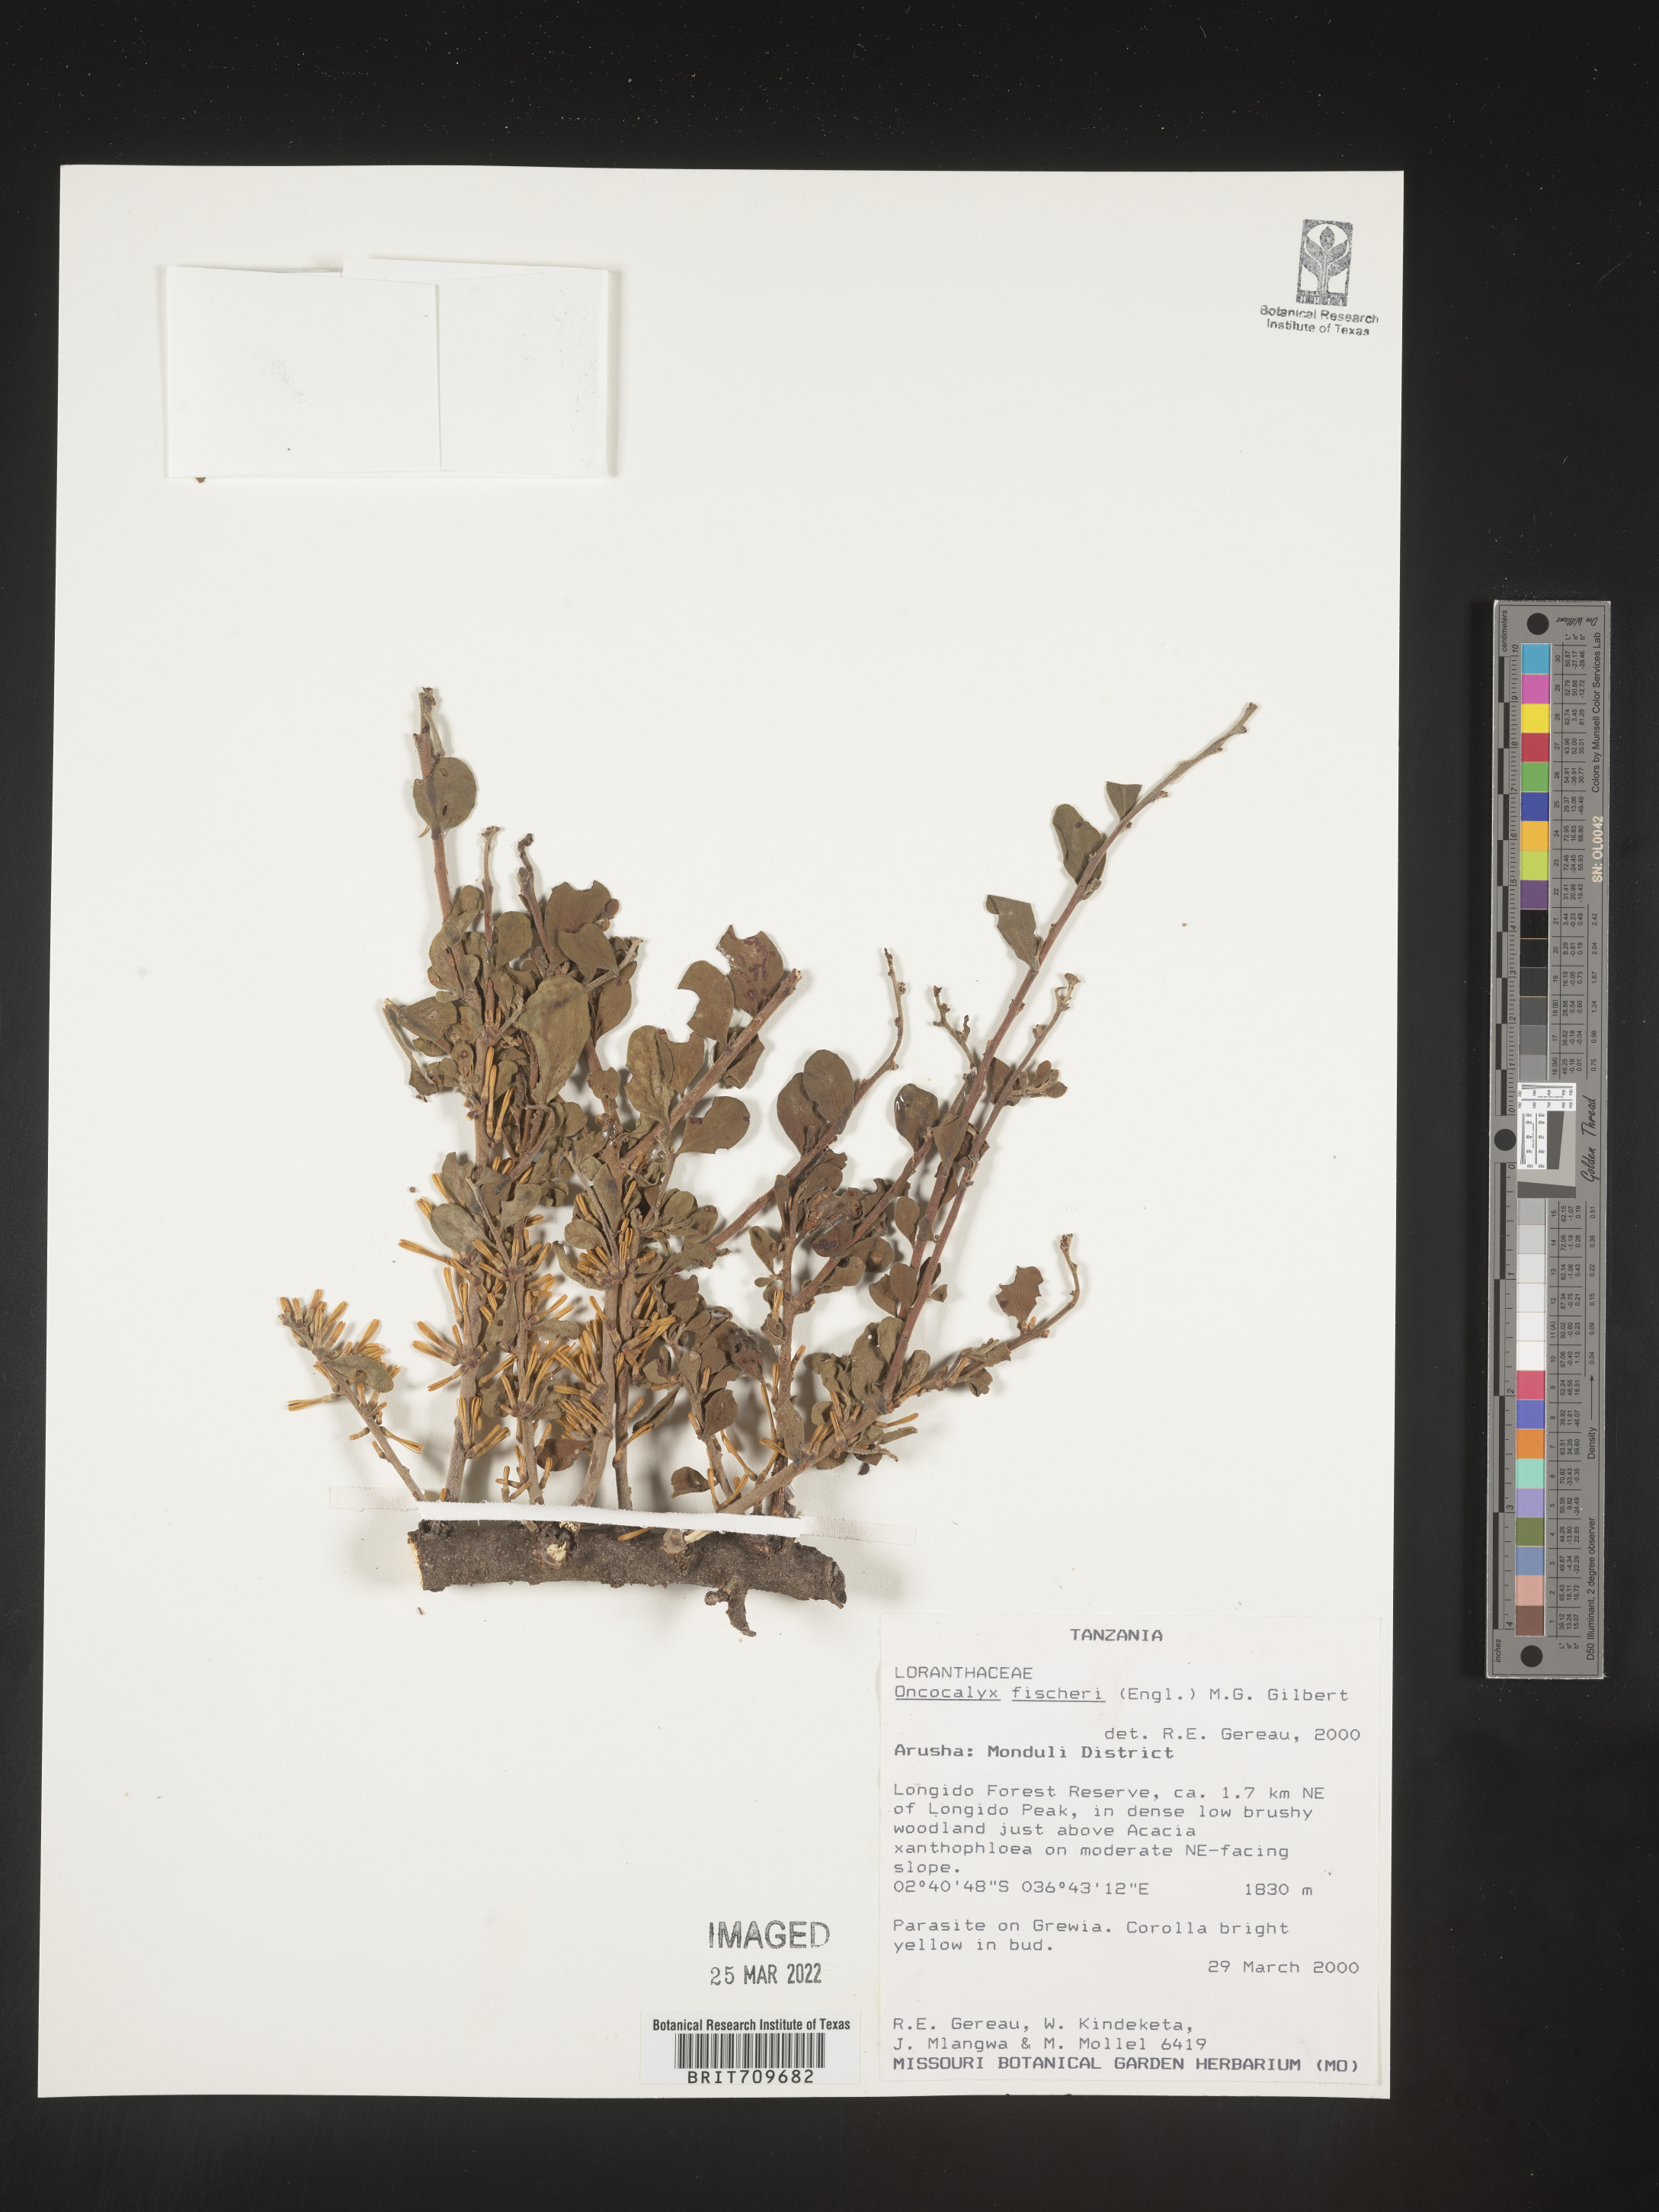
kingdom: Plantae
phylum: Tracheophyta
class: Magnoliopsida
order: Santalales
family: Loranthaceae
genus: Oncocalyx
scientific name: Oncocalyx
